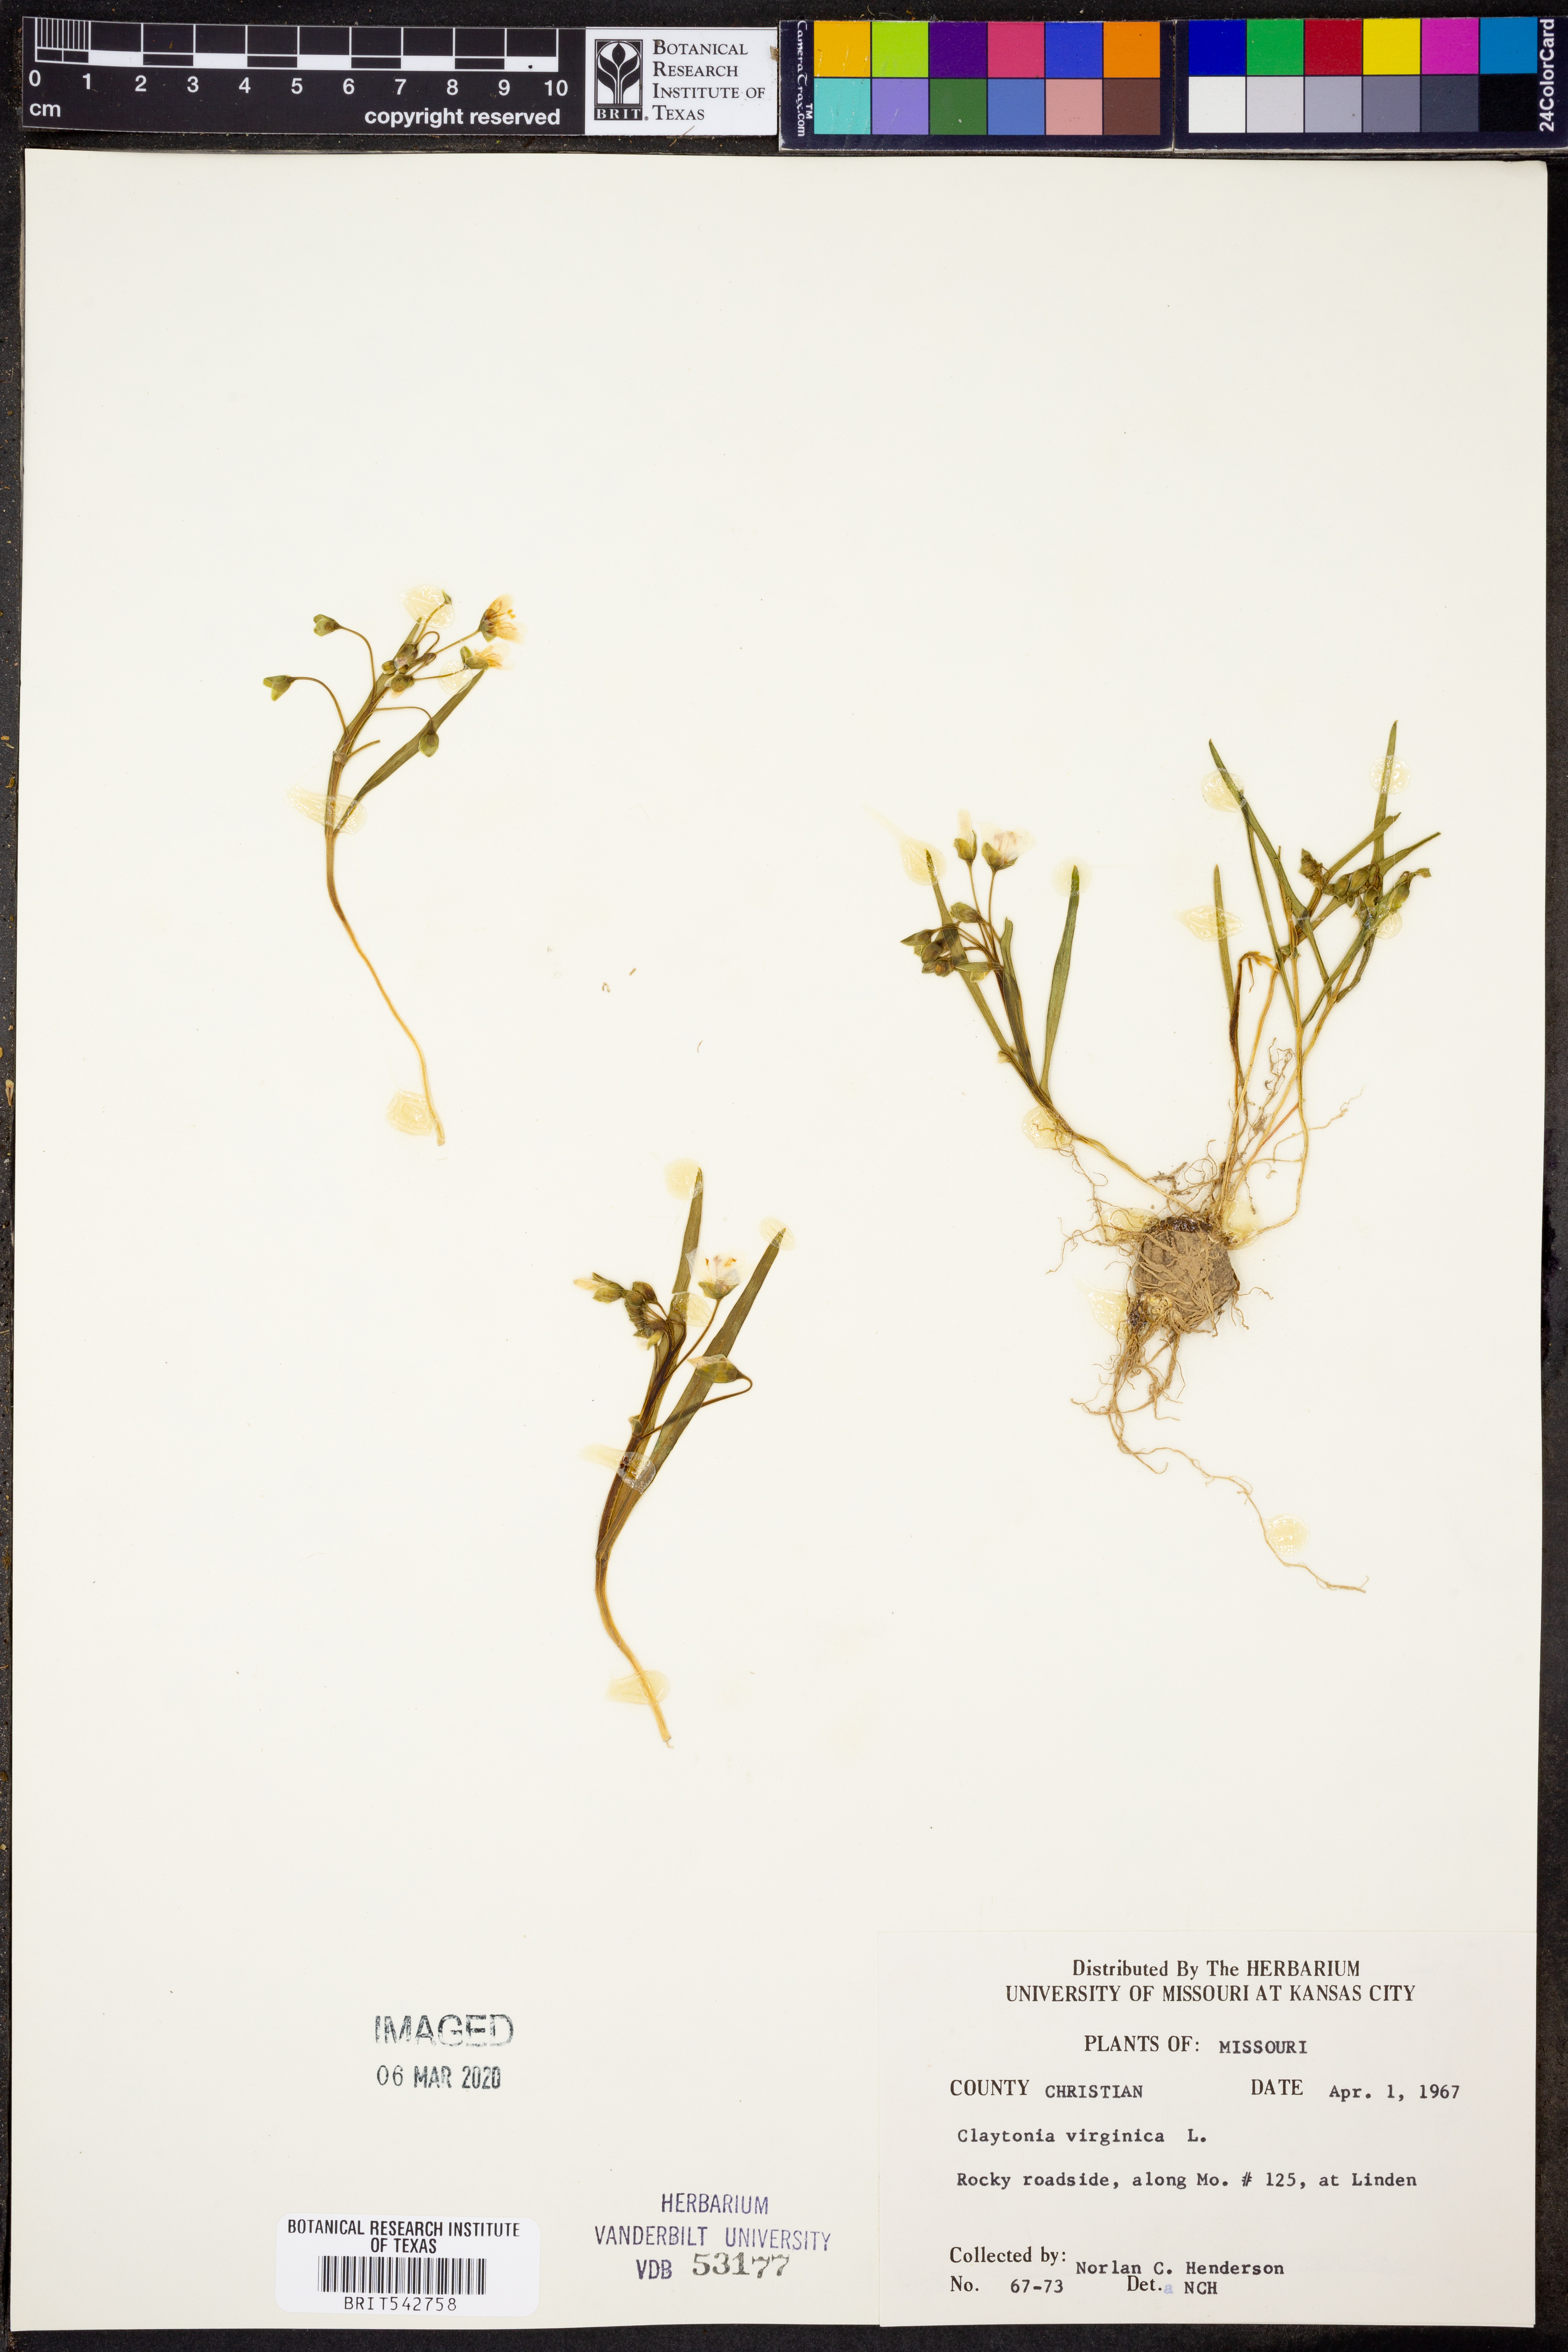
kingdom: Plantae
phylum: Tracheophyta
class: Magnoliopsida
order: Caryophyllales
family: Montiaceae
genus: Claytonia
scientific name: Claytonia virginica
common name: Virginia springbeauty
